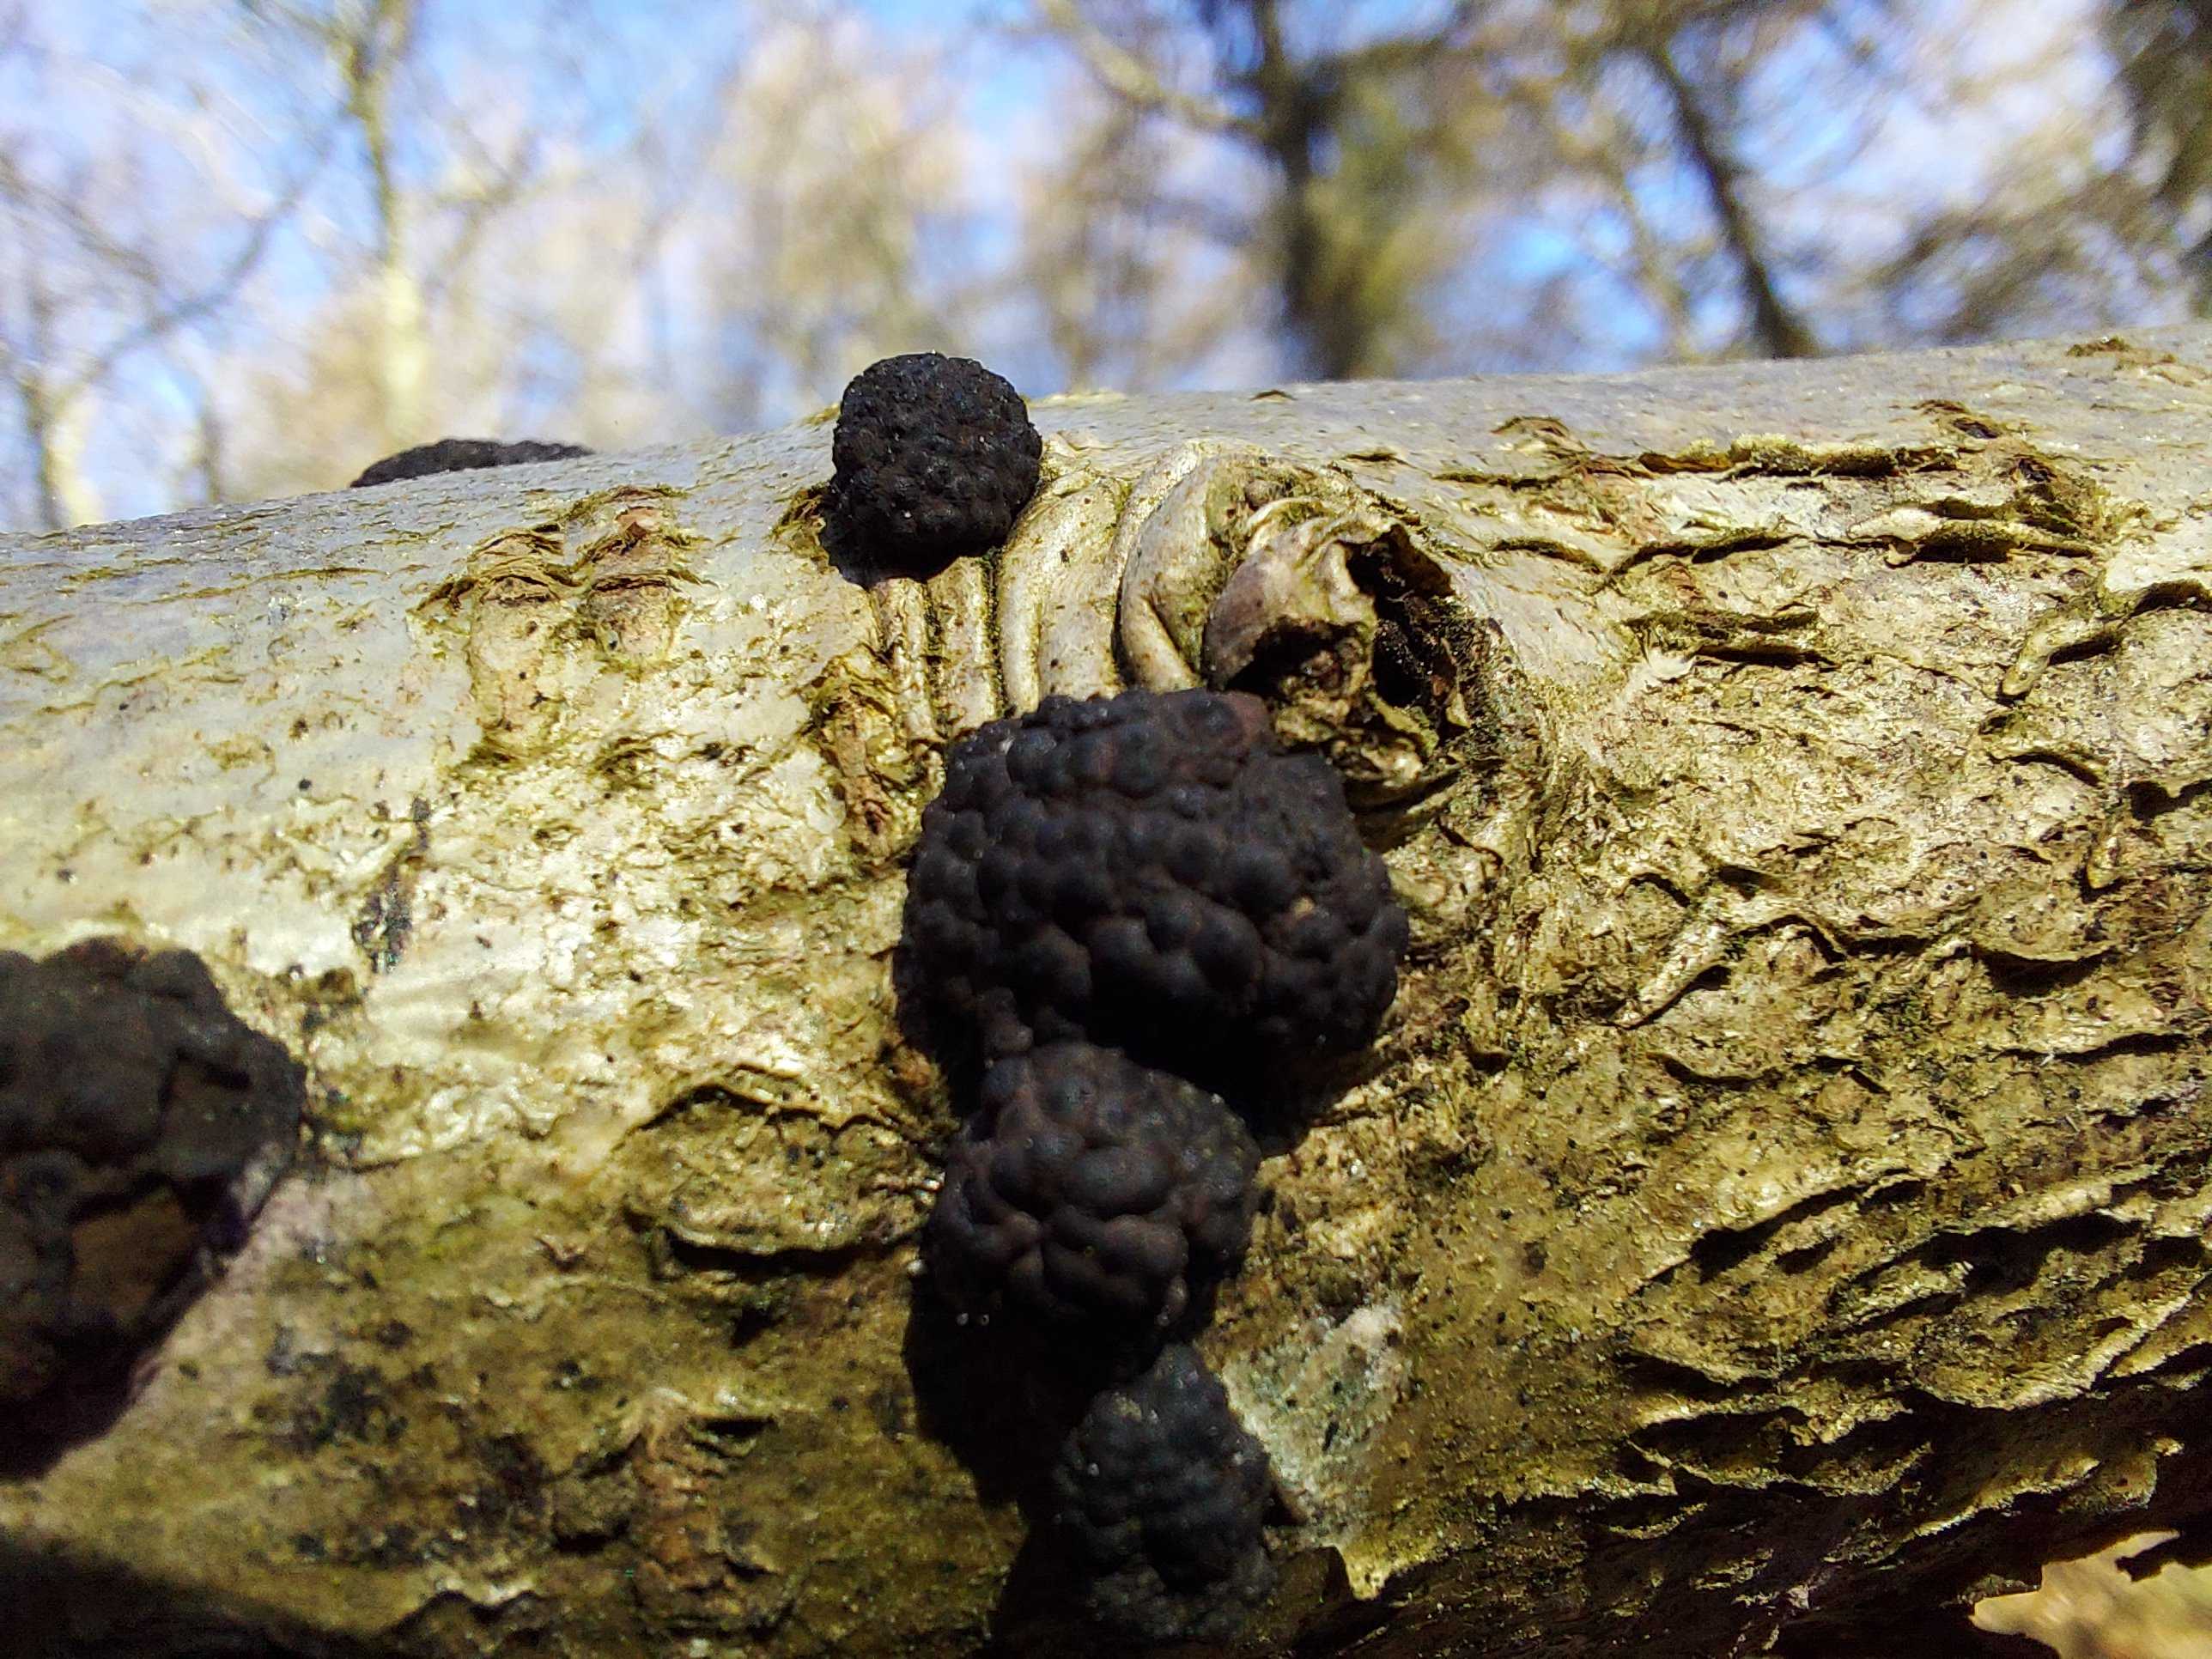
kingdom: Fungi
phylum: Ascomycota
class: Sordariomycetes
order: Xylariales
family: Hypoxylaceae
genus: Jackrogersella
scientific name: Jackrogersella multiformis
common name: foranderlig kulbær
